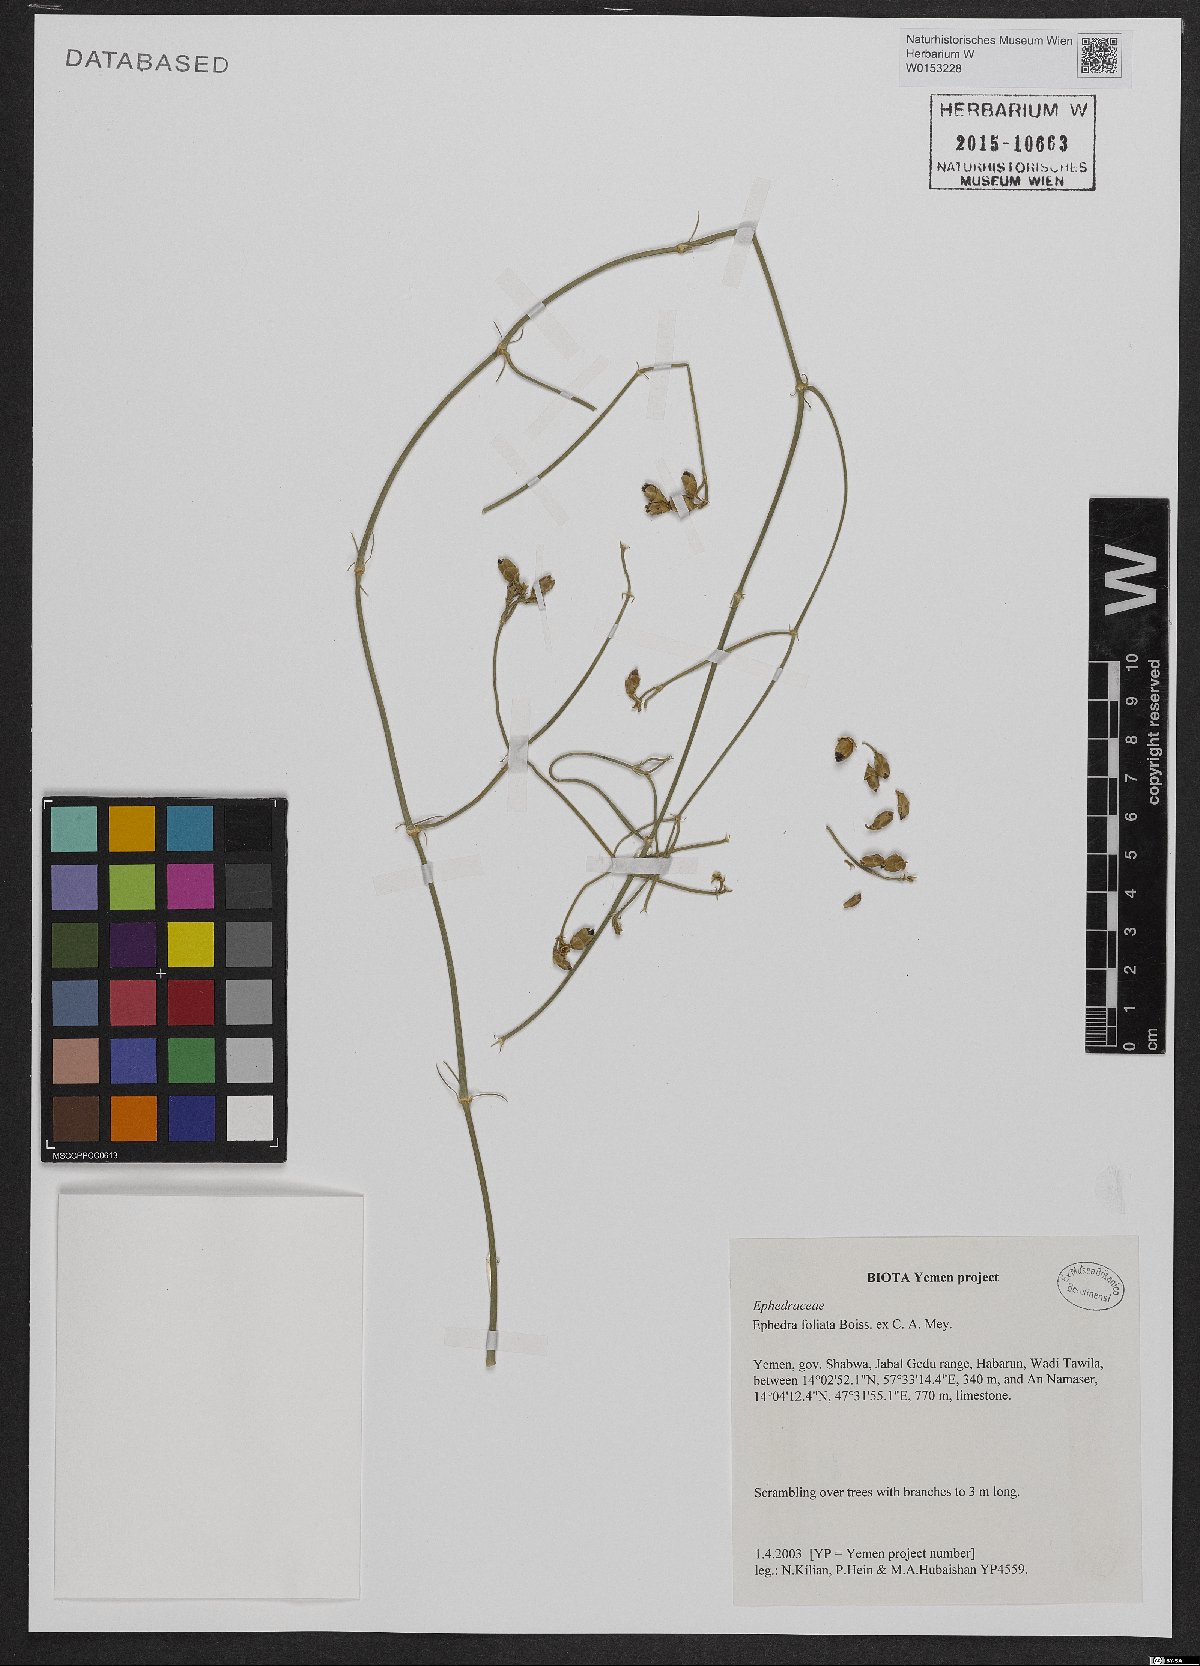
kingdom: Plantae
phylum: Tracheophyta
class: Gnetopsida
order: Ephedrales
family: Ephedraceae
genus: Ephedra
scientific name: Ephedra ciliata
